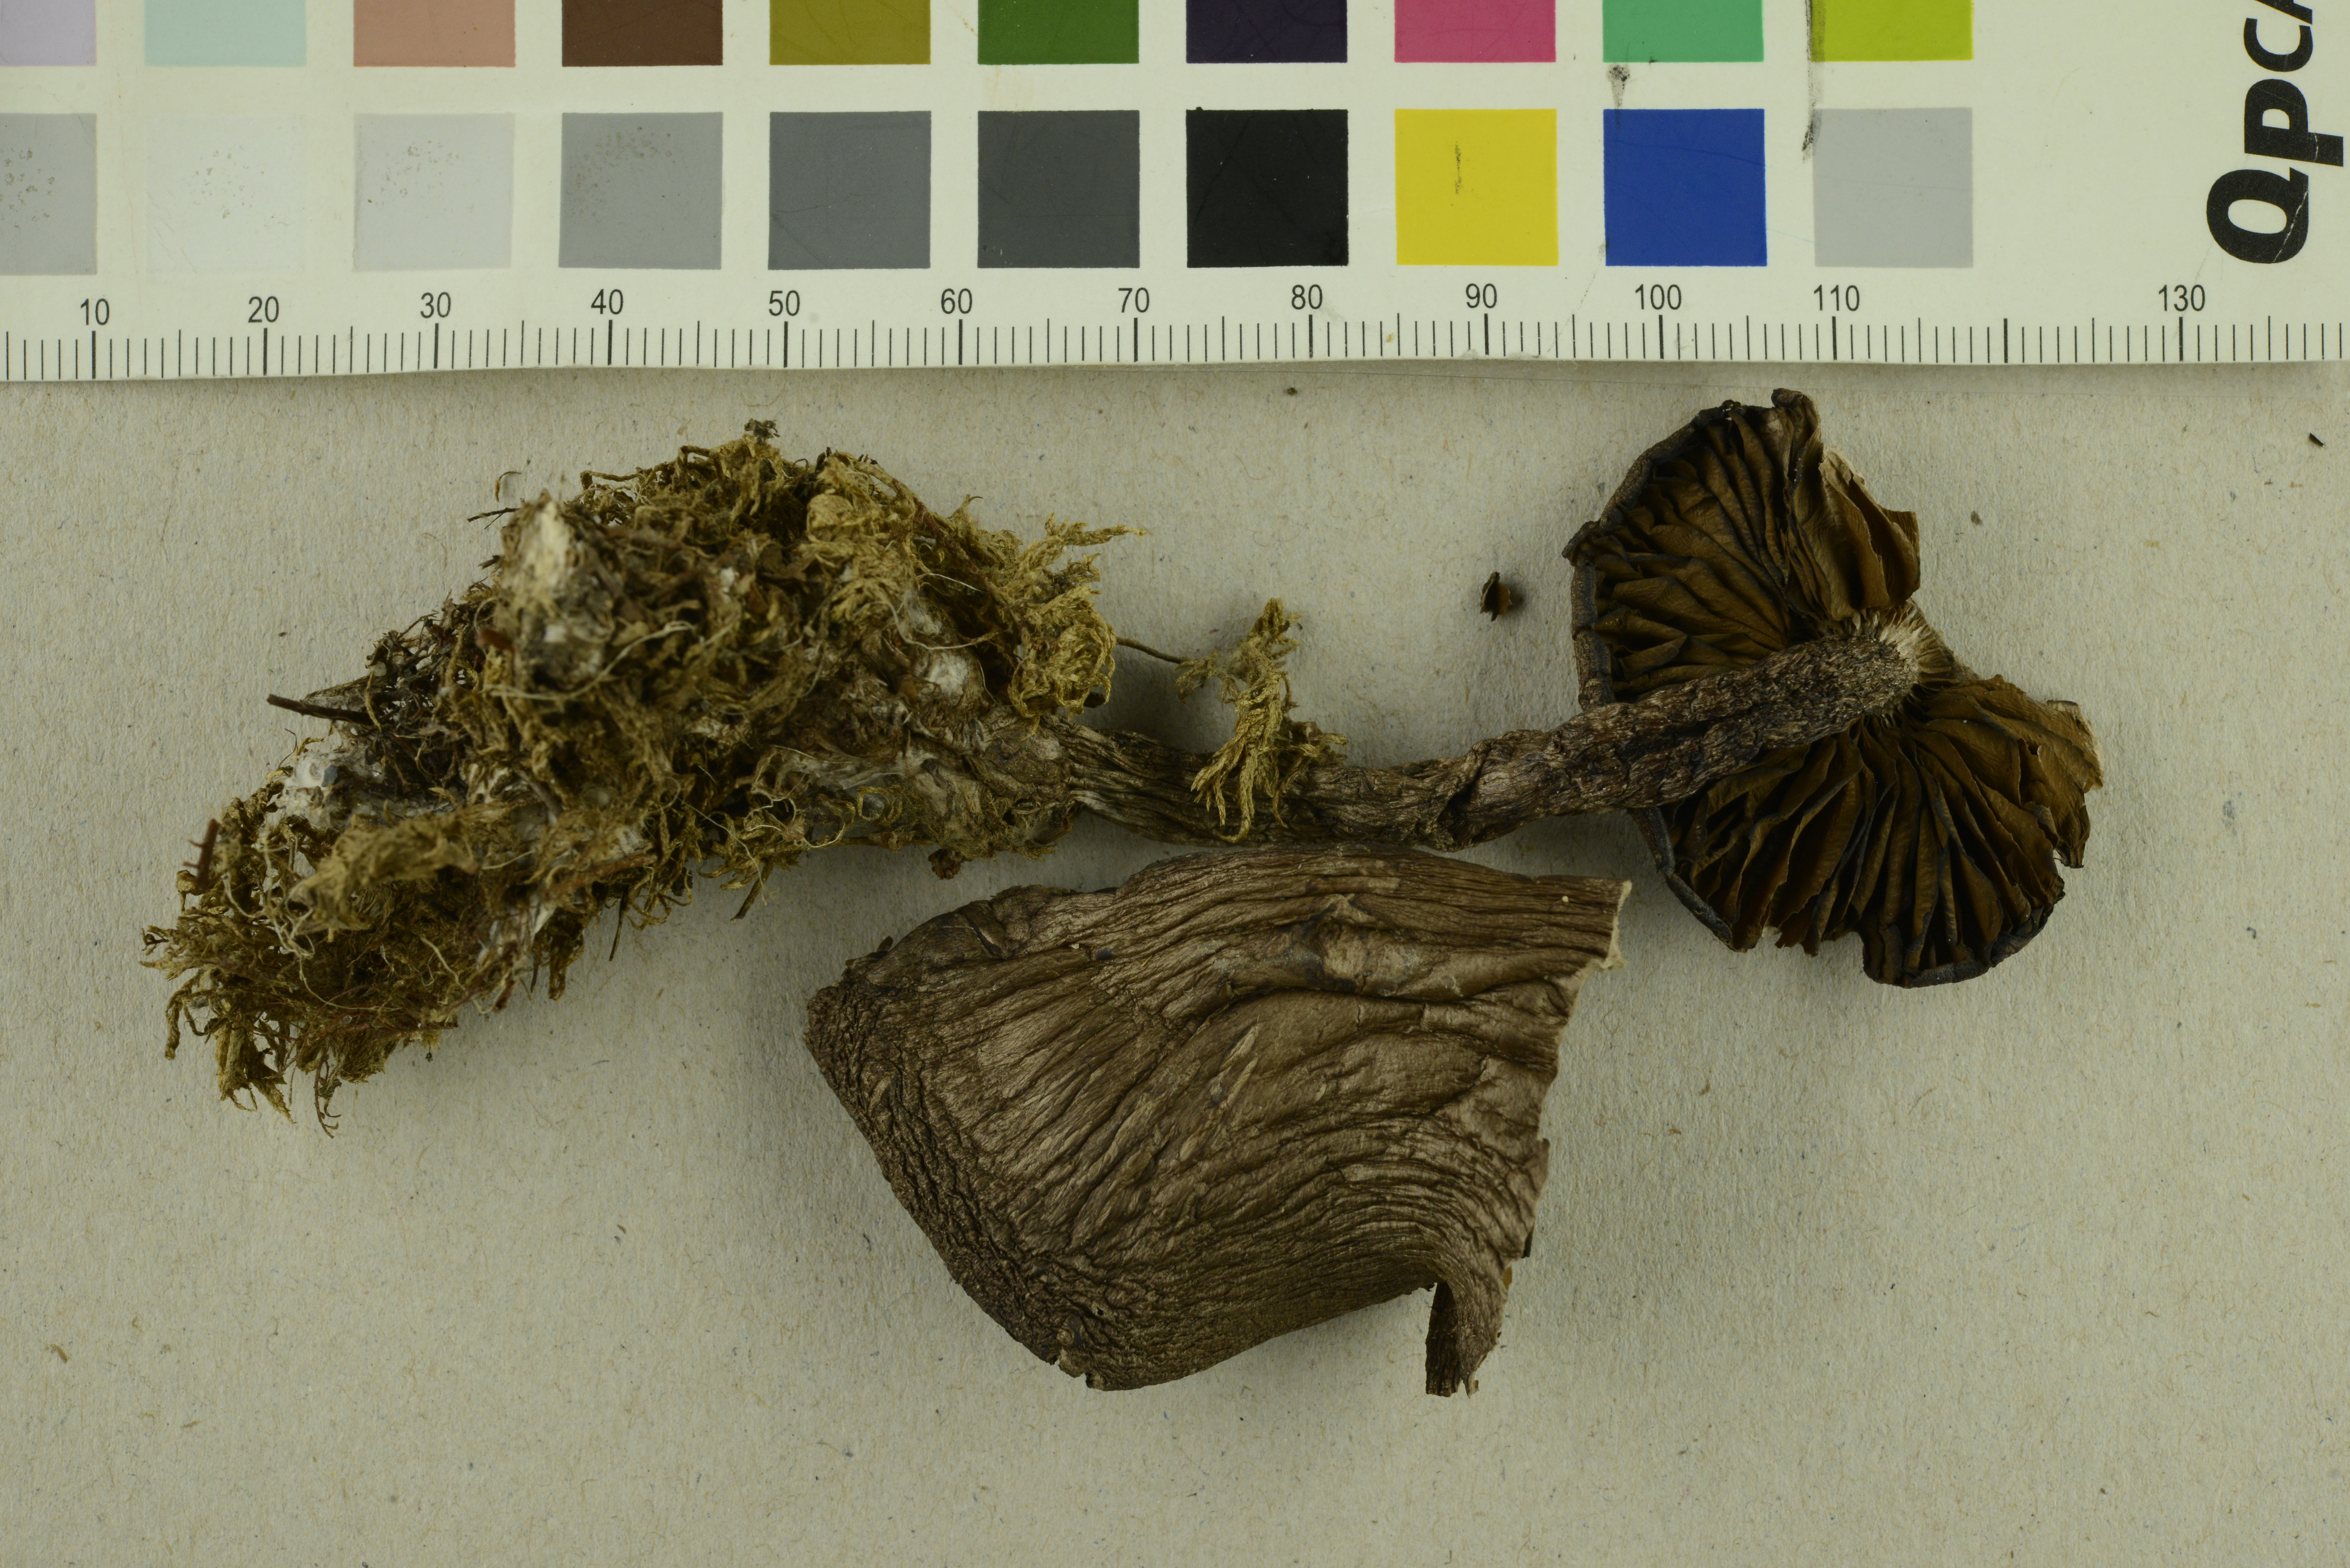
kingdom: Fungi
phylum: Basidiomycota
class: Agaricomycetes
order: Agaricales
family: Cortinariaceae
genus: Cortinarius
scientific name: Cortinarius adustorimosus
